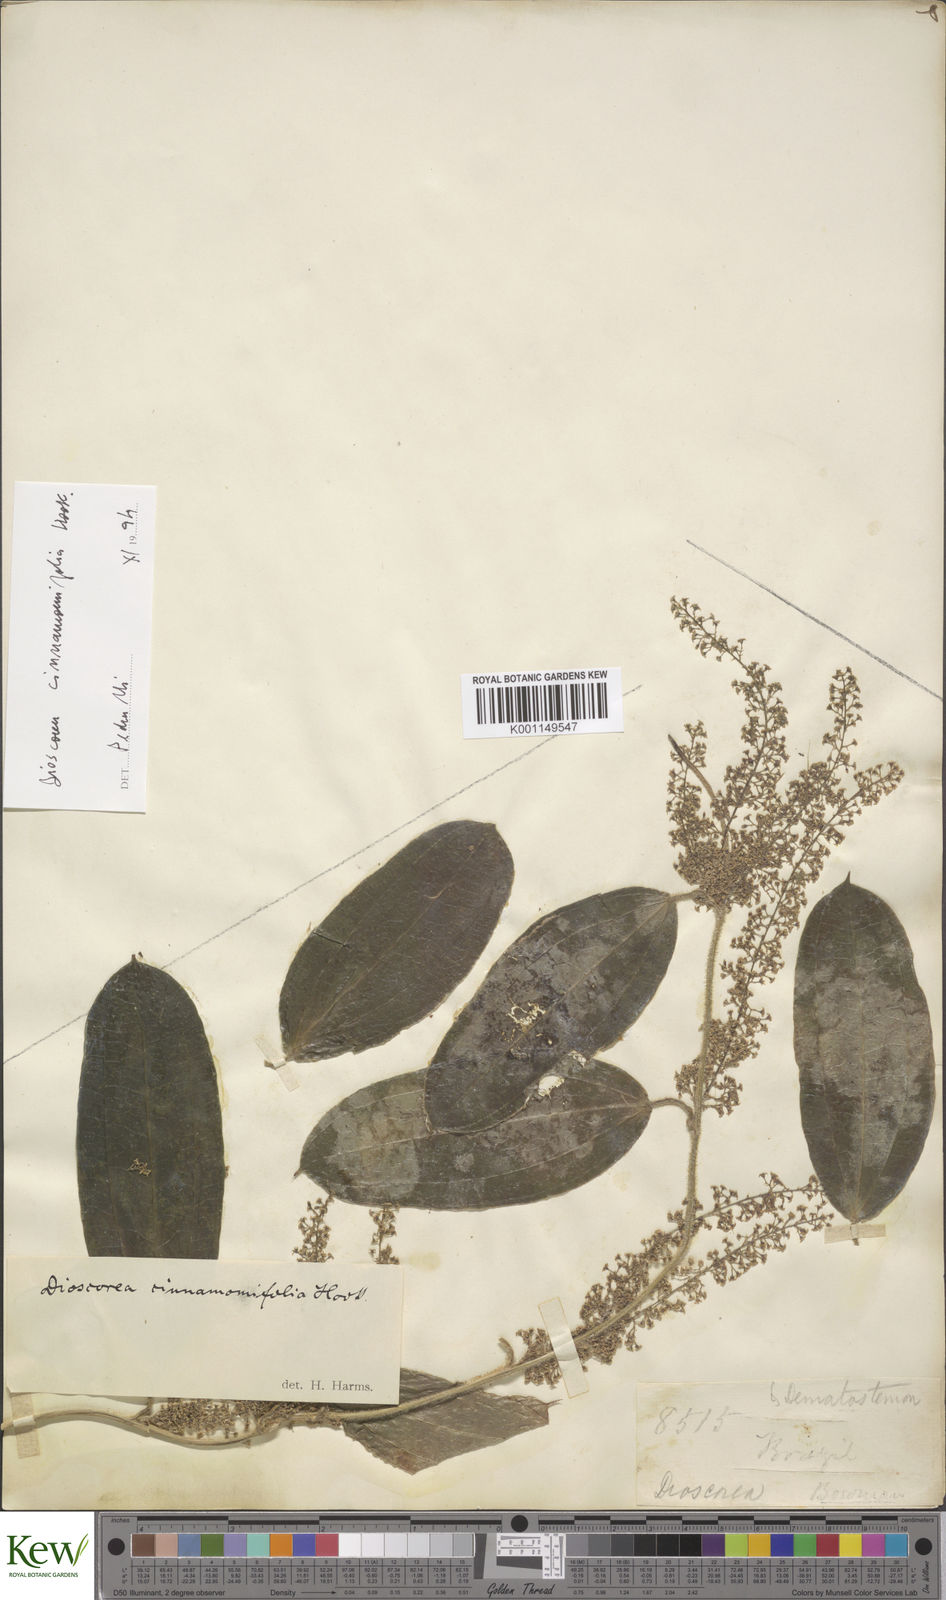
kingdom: Plantae
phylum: Tracheophyta
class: Liliopsida
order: Dioscoreales
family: Dioscoreaceae
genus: Dioscorea
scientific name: Dioscorea cinnamomifolia
